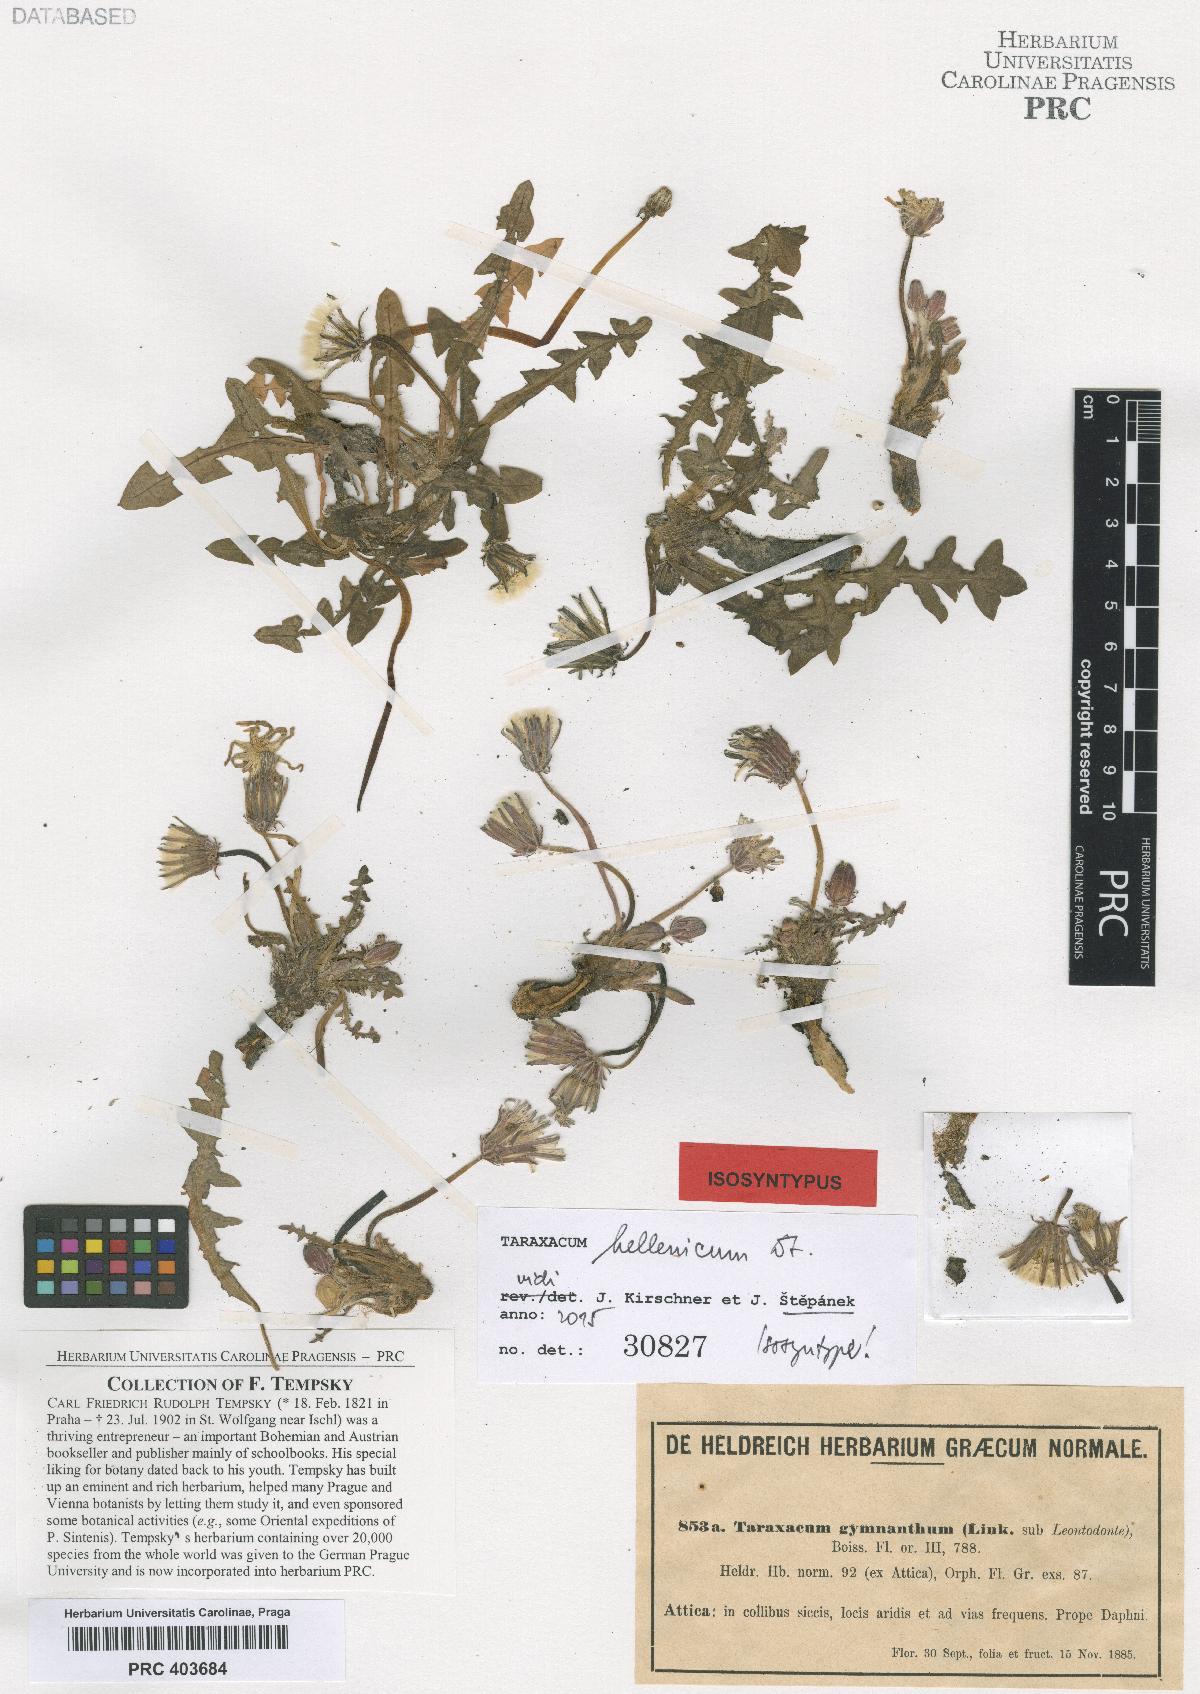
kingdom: Plantae
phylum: Tracheophyta
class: Magnoliopsida
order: Asterales
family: Asteraceae
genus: Taraxacum
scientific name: Taraxacum hellenicum
